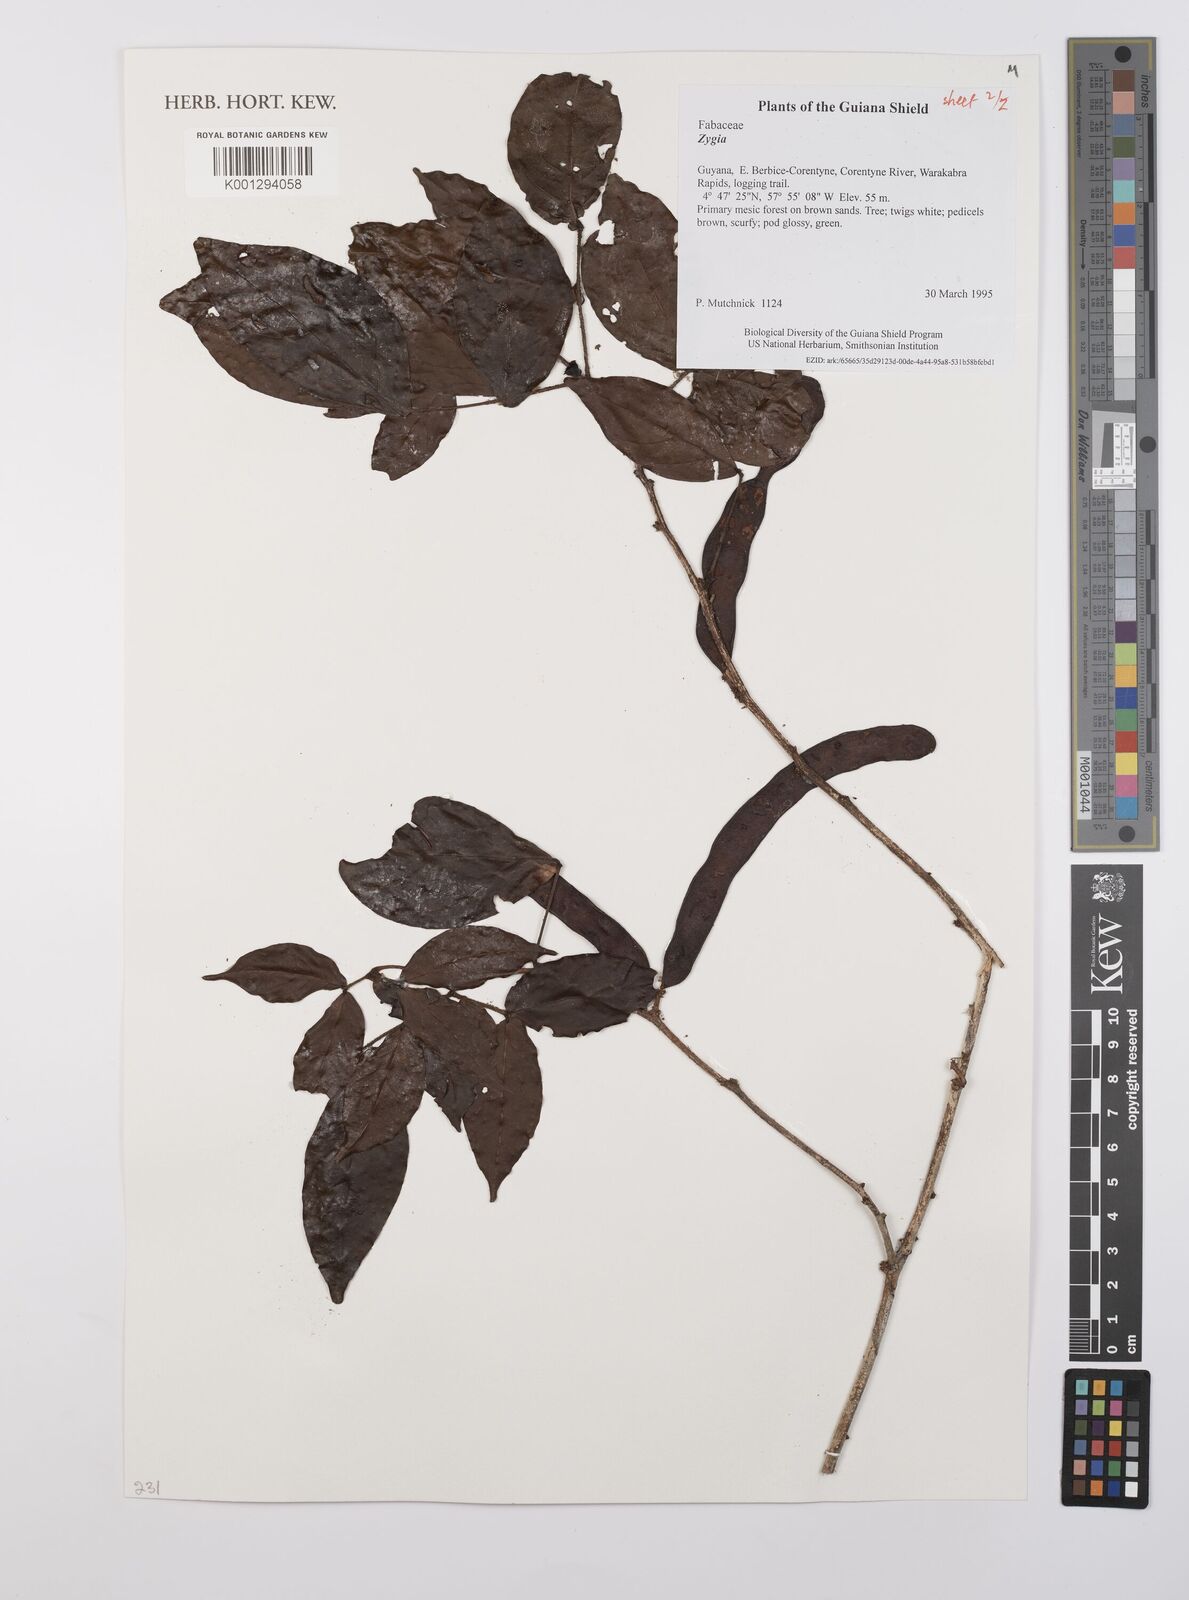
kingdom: Plantae
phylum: Tracheophyta
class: Magnoliopsida
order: Fabales
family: Fabaceae
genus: Zygia
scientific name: Zygia
